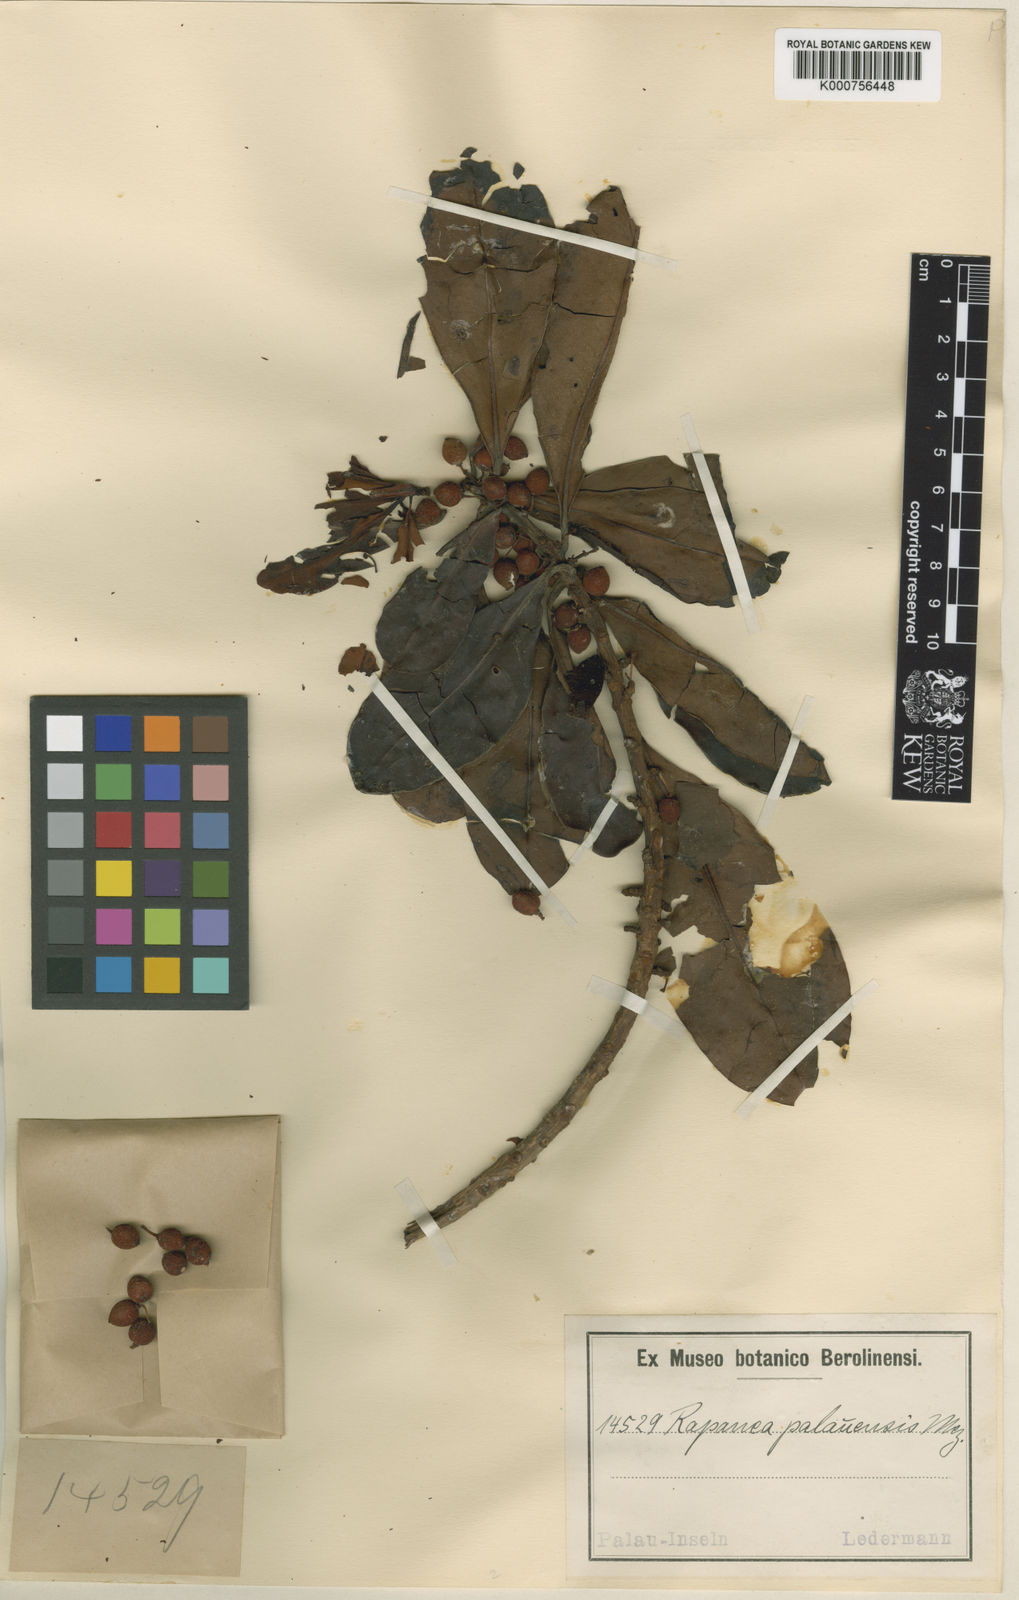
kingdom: Plantae
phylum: Tracheophyta
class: Magnoliopsida
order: Ericales
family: Primulaceae
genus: Myrsine
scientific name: Myrsine palauensis
